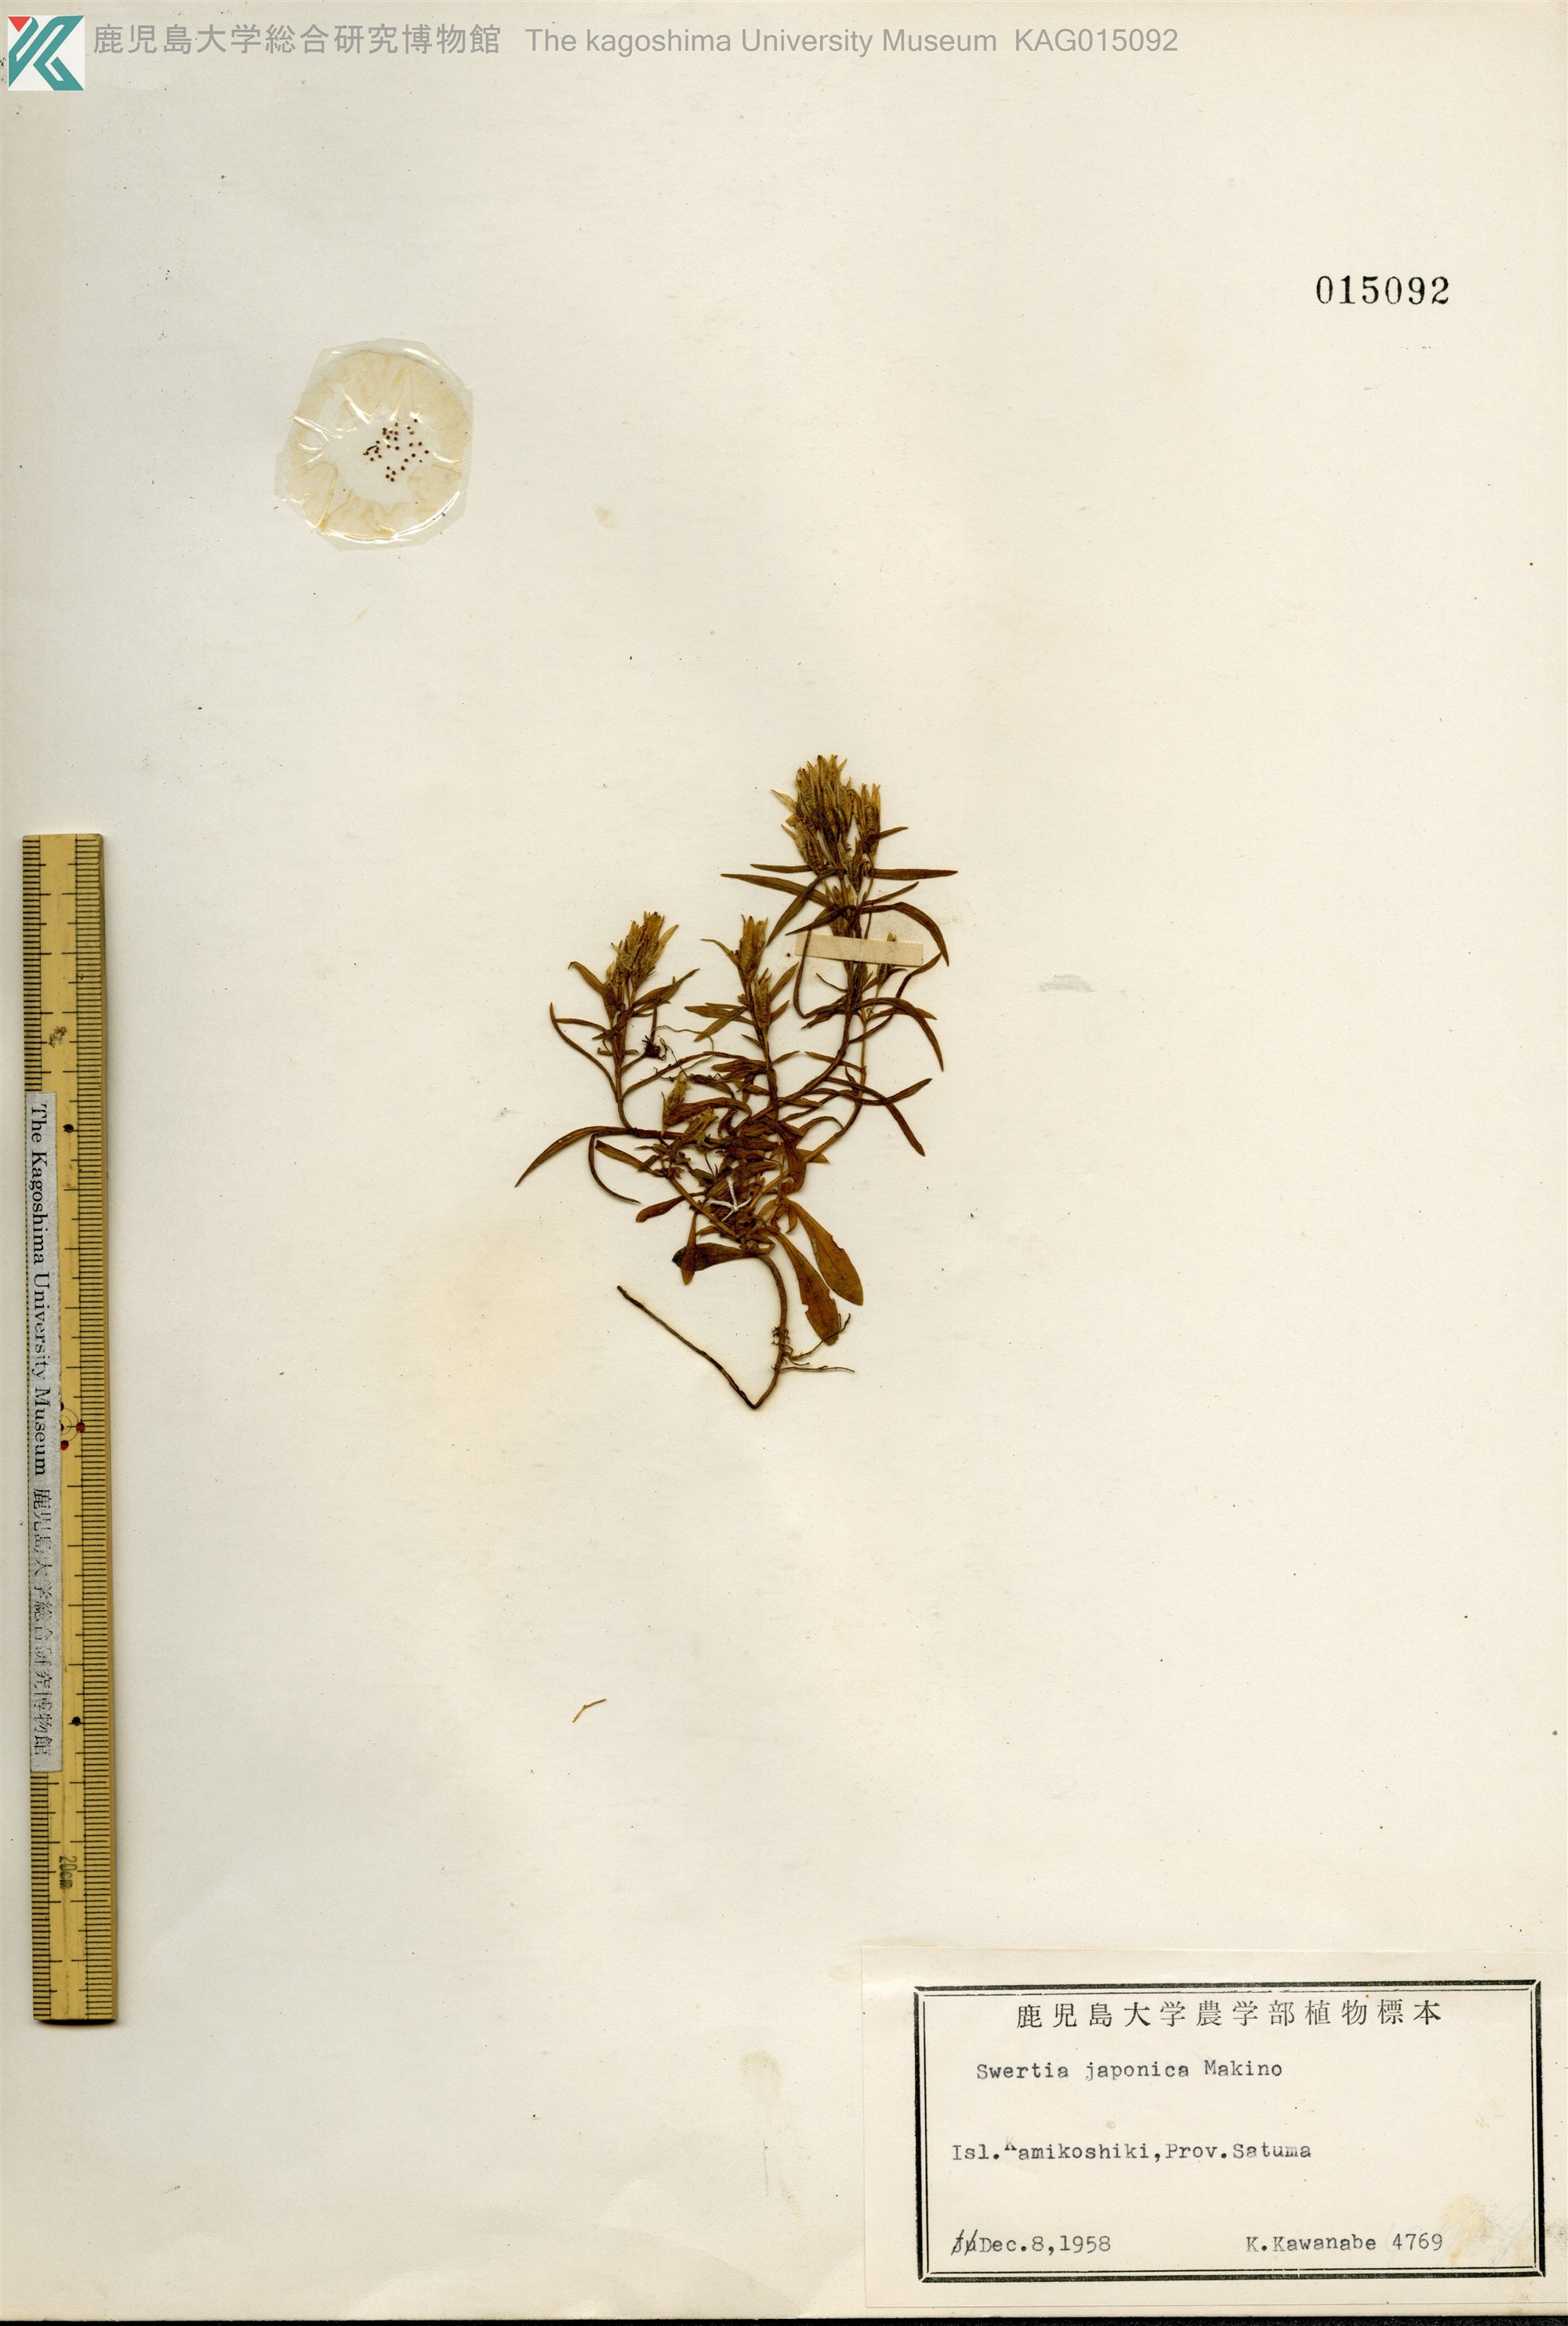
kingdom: Plantae
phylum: Tracheophyta
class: Magnoliopsida
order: Gentianales
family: Gentianaceae
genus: Swertia
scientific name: Swertia japonica
